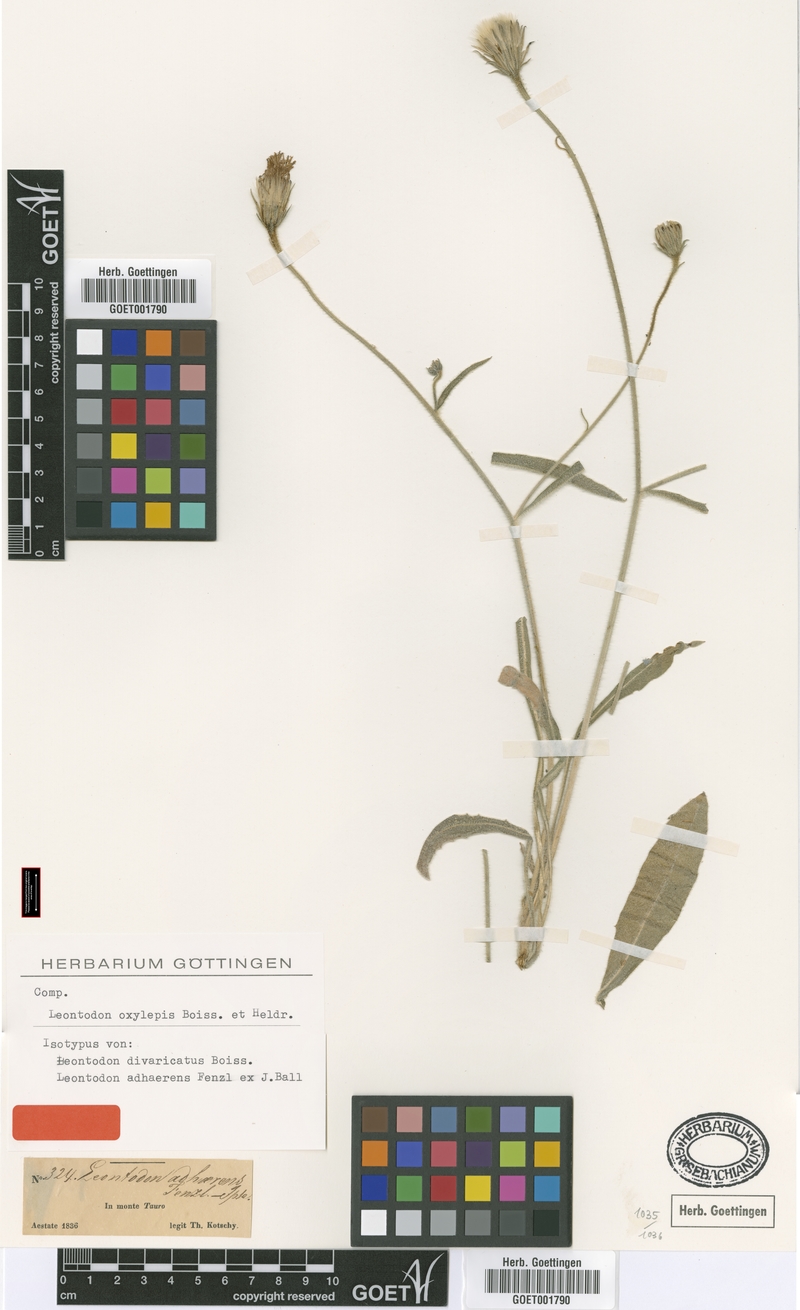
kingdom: Plantae
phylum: Tracheophyta
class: Magnoliopsida
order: Asterales
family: Asteraceae
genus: Leontodon
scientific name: Leontodon oxylepis
